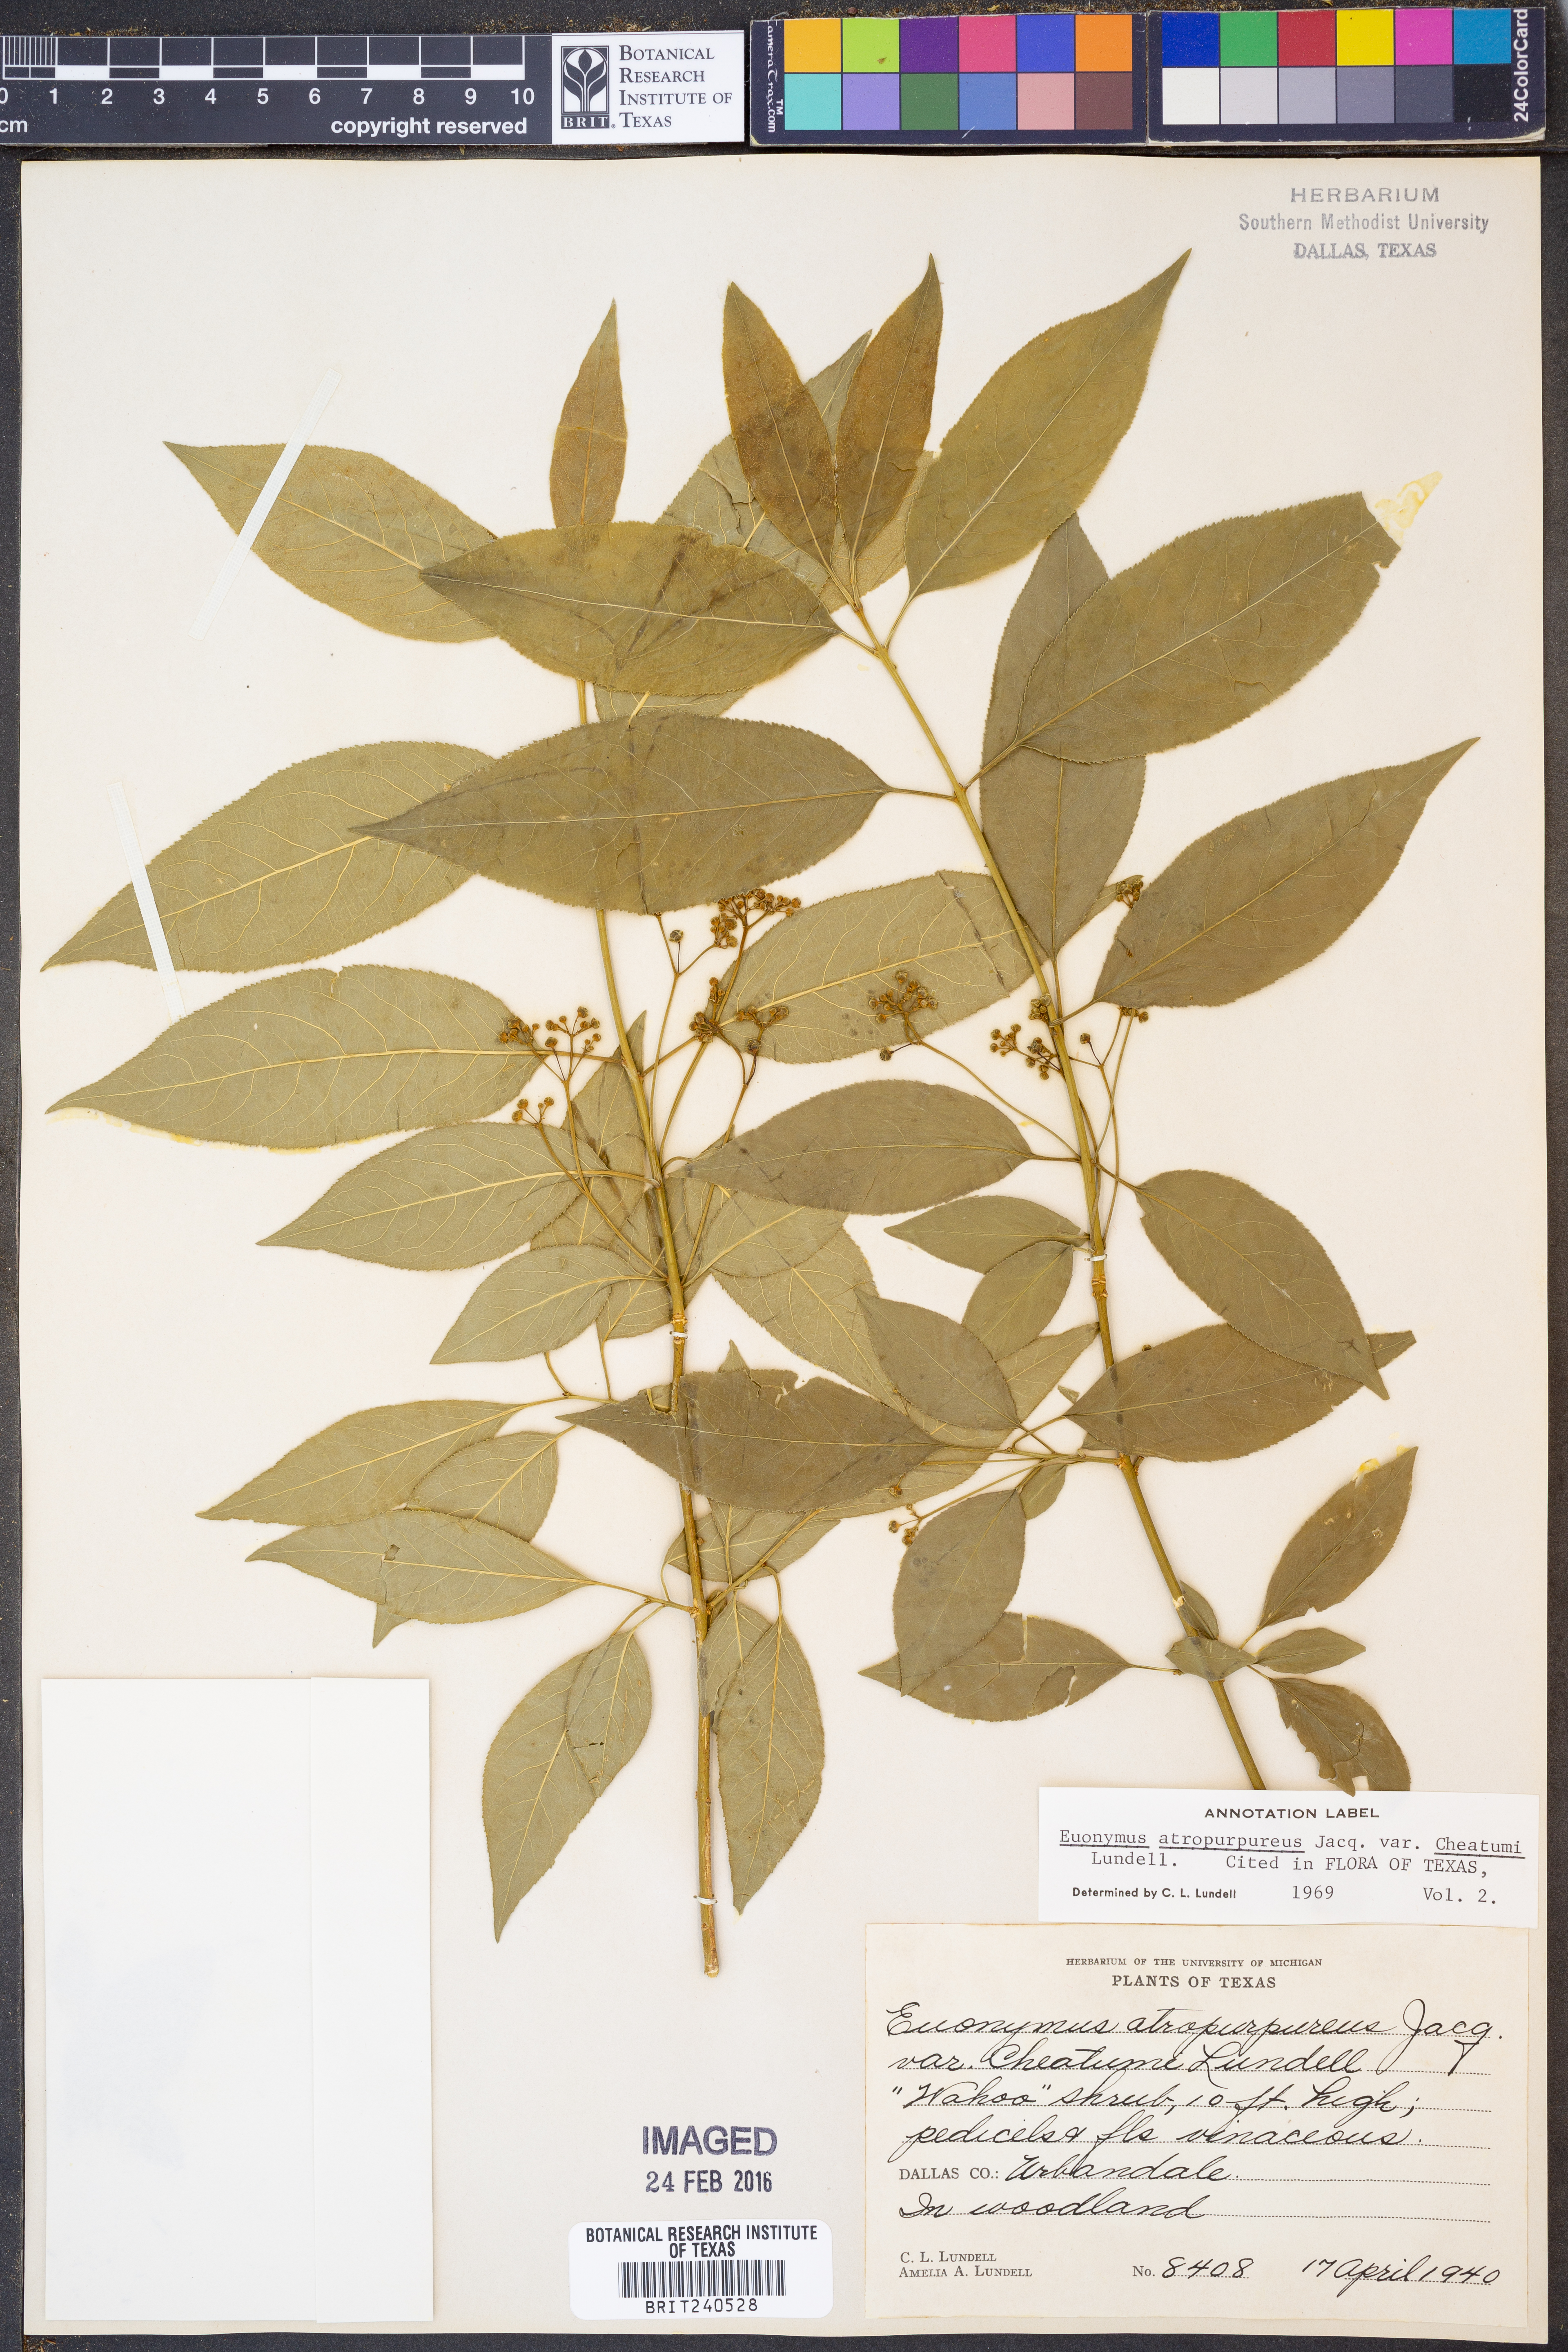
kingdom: Plantae
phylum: Tracheophyta
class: Magnoliopsida
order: Celastrales
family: Celastraceae
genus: Euonymus
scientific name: Euonymus atropurpureus
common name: Eastern wahoo
